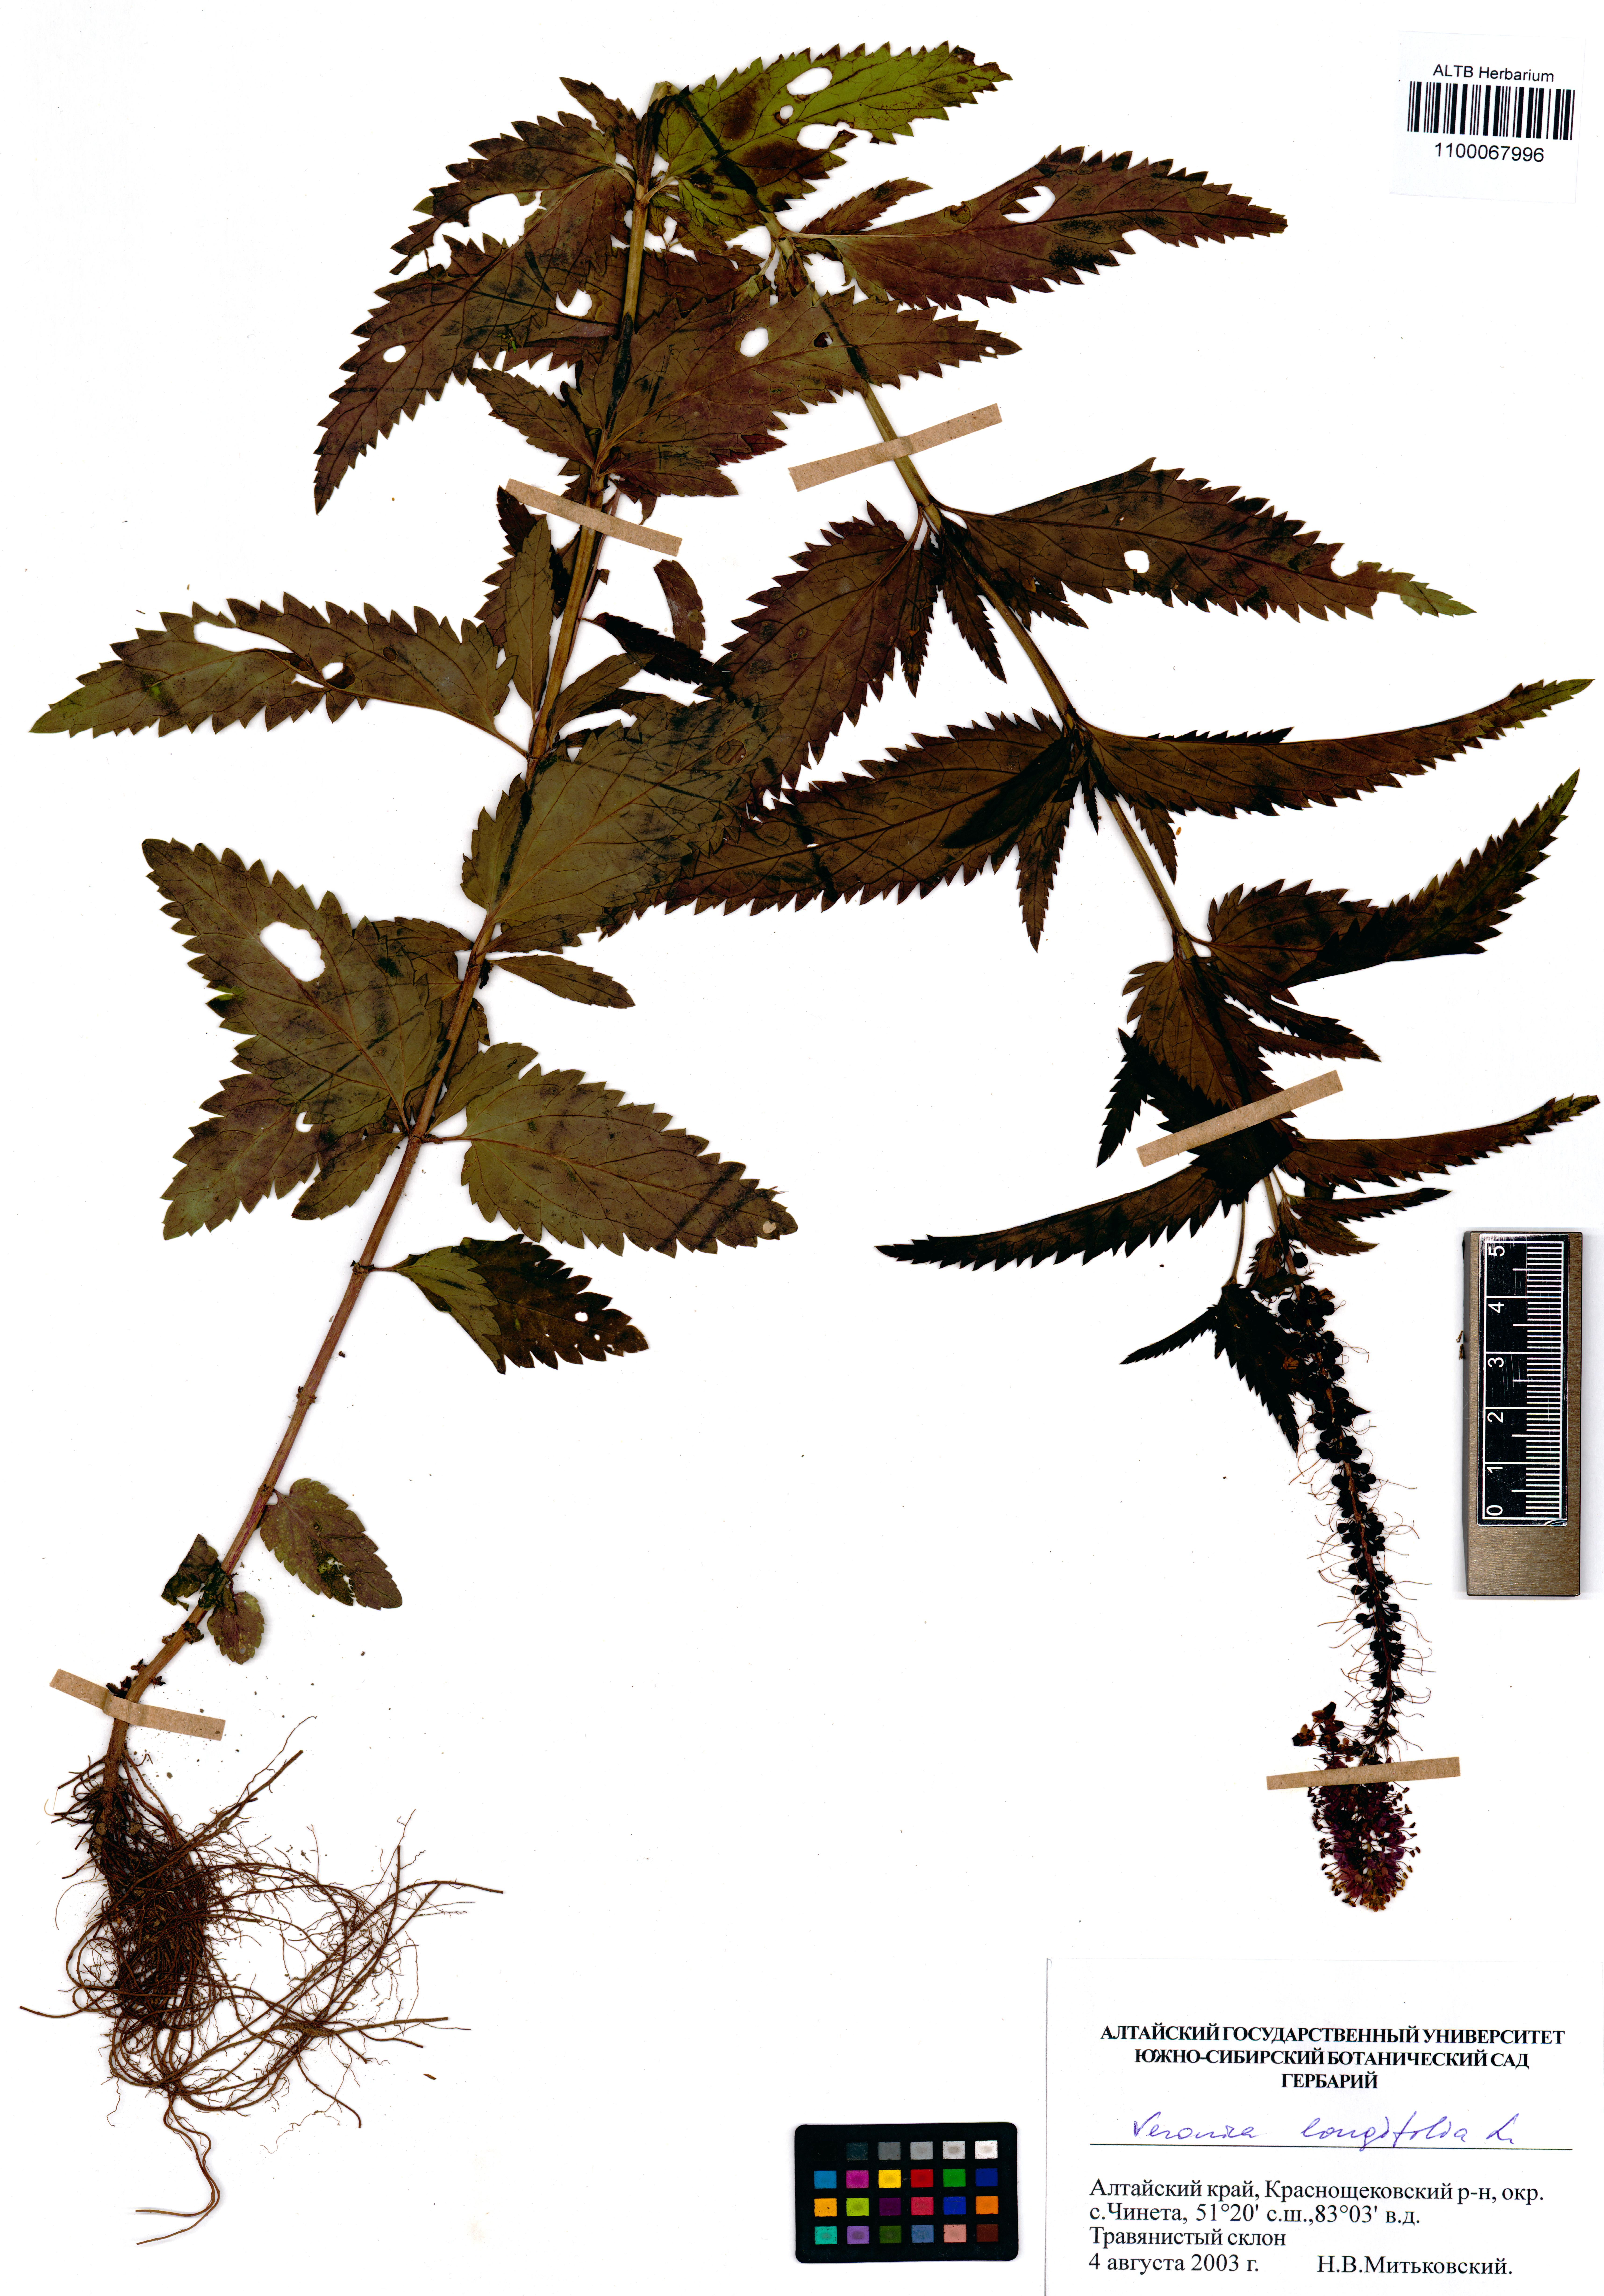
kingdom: Plantae
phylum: Tracheophyta
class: Magnoliopsida
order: Lamiales
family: Plantaginaceae
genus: Veronica
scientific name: Veronica longifolia
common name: Garden speedwell
